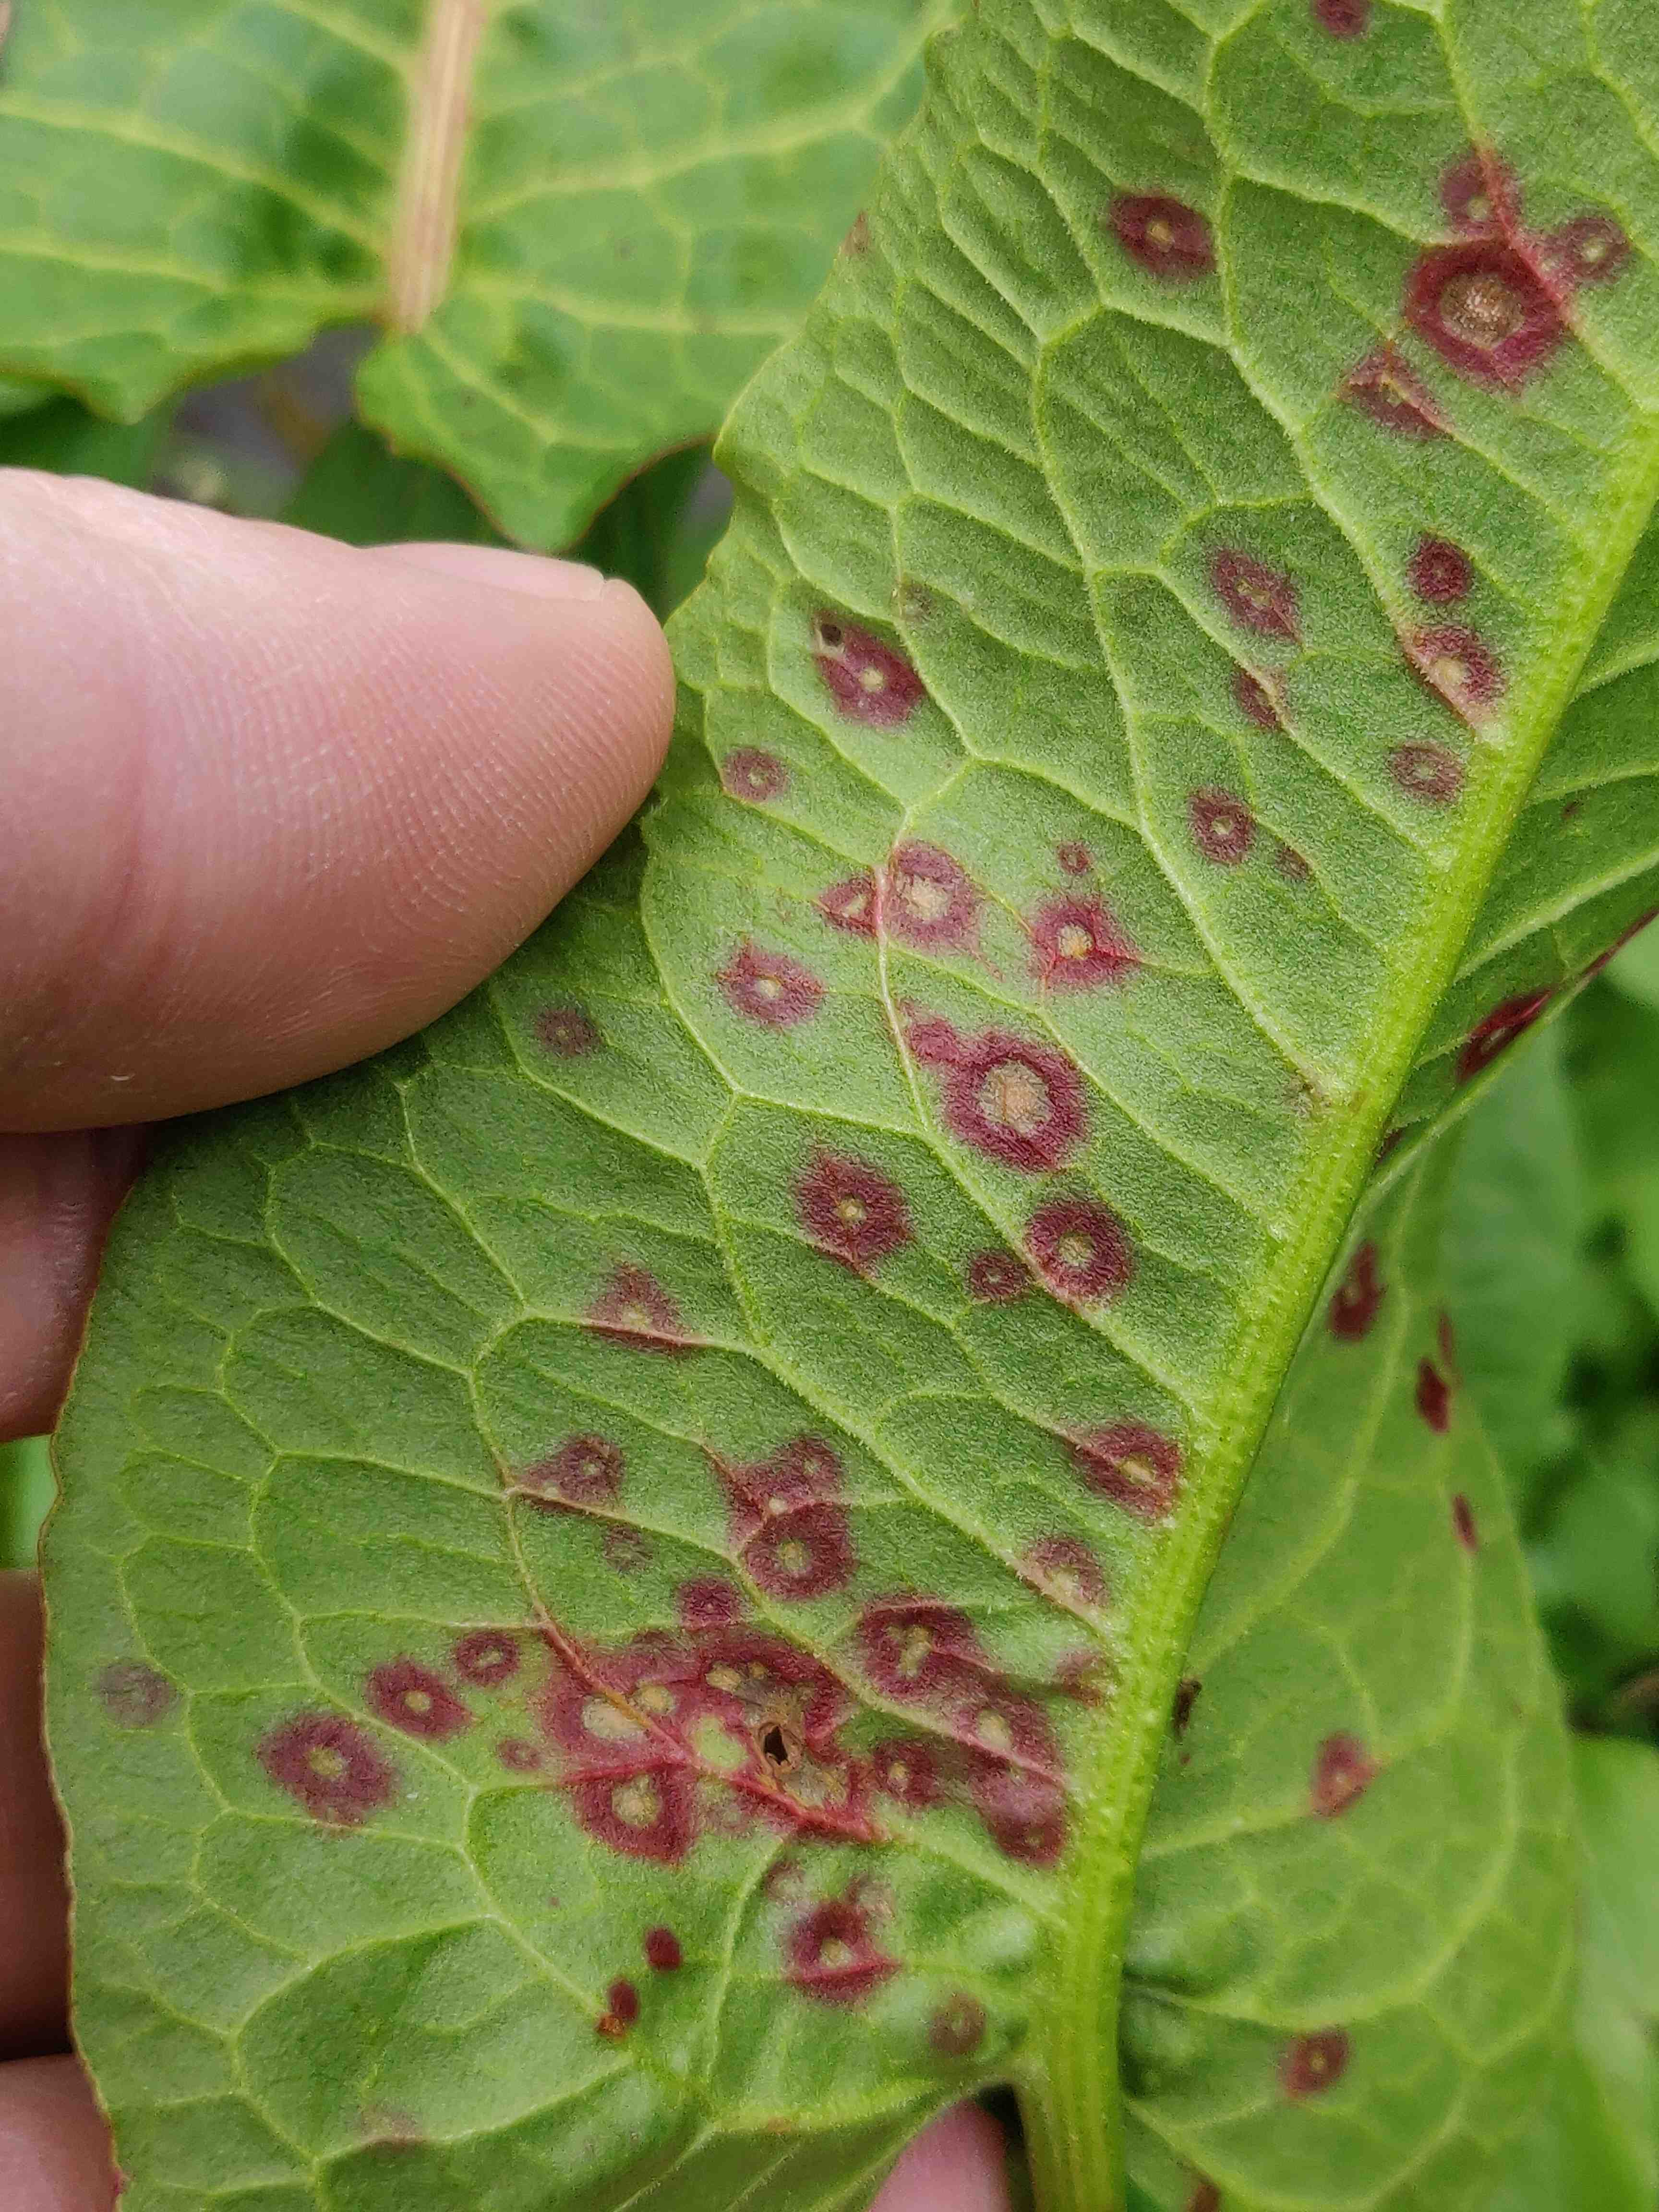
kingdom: Fungi
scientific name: Fungi
